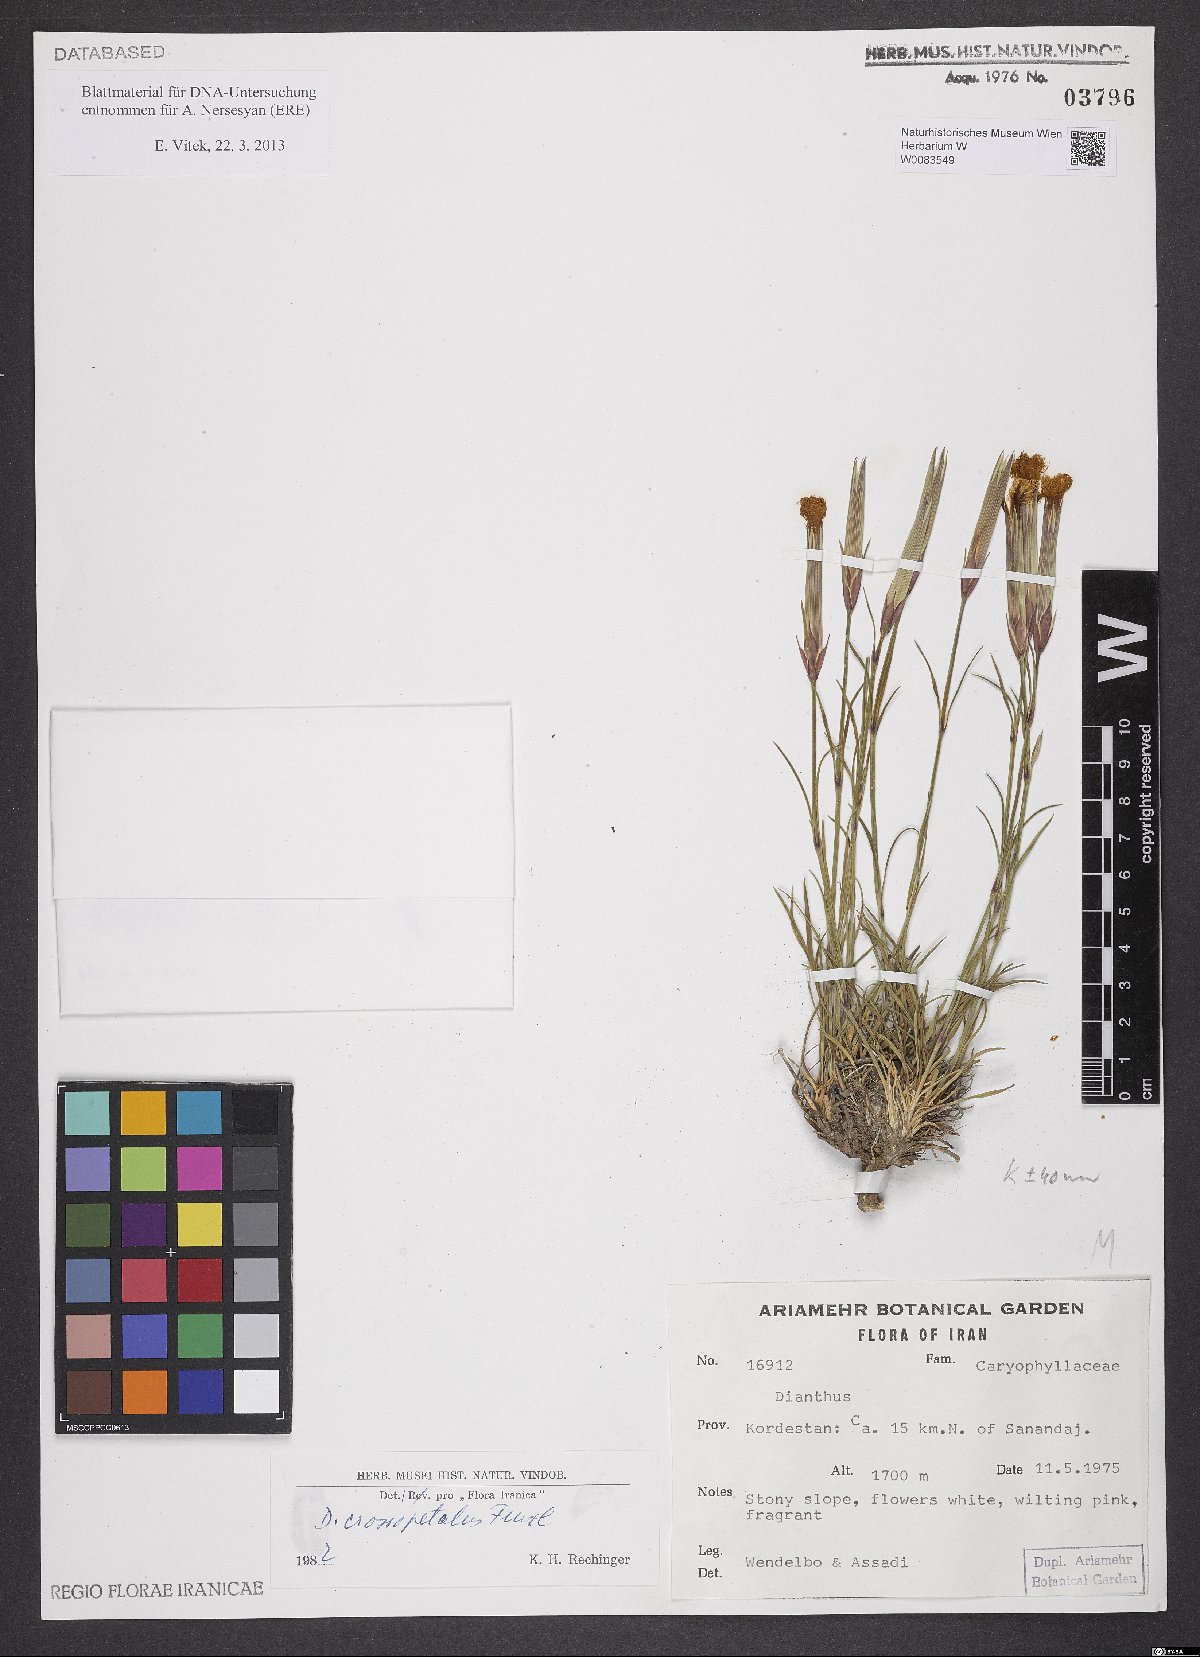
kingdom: Plantae
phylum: Tracheophyta
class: Magnoliopsida
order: Caryophyllales
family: Caryophyllaceae
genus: Dianthus
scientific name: Dianthus crossopetalus
